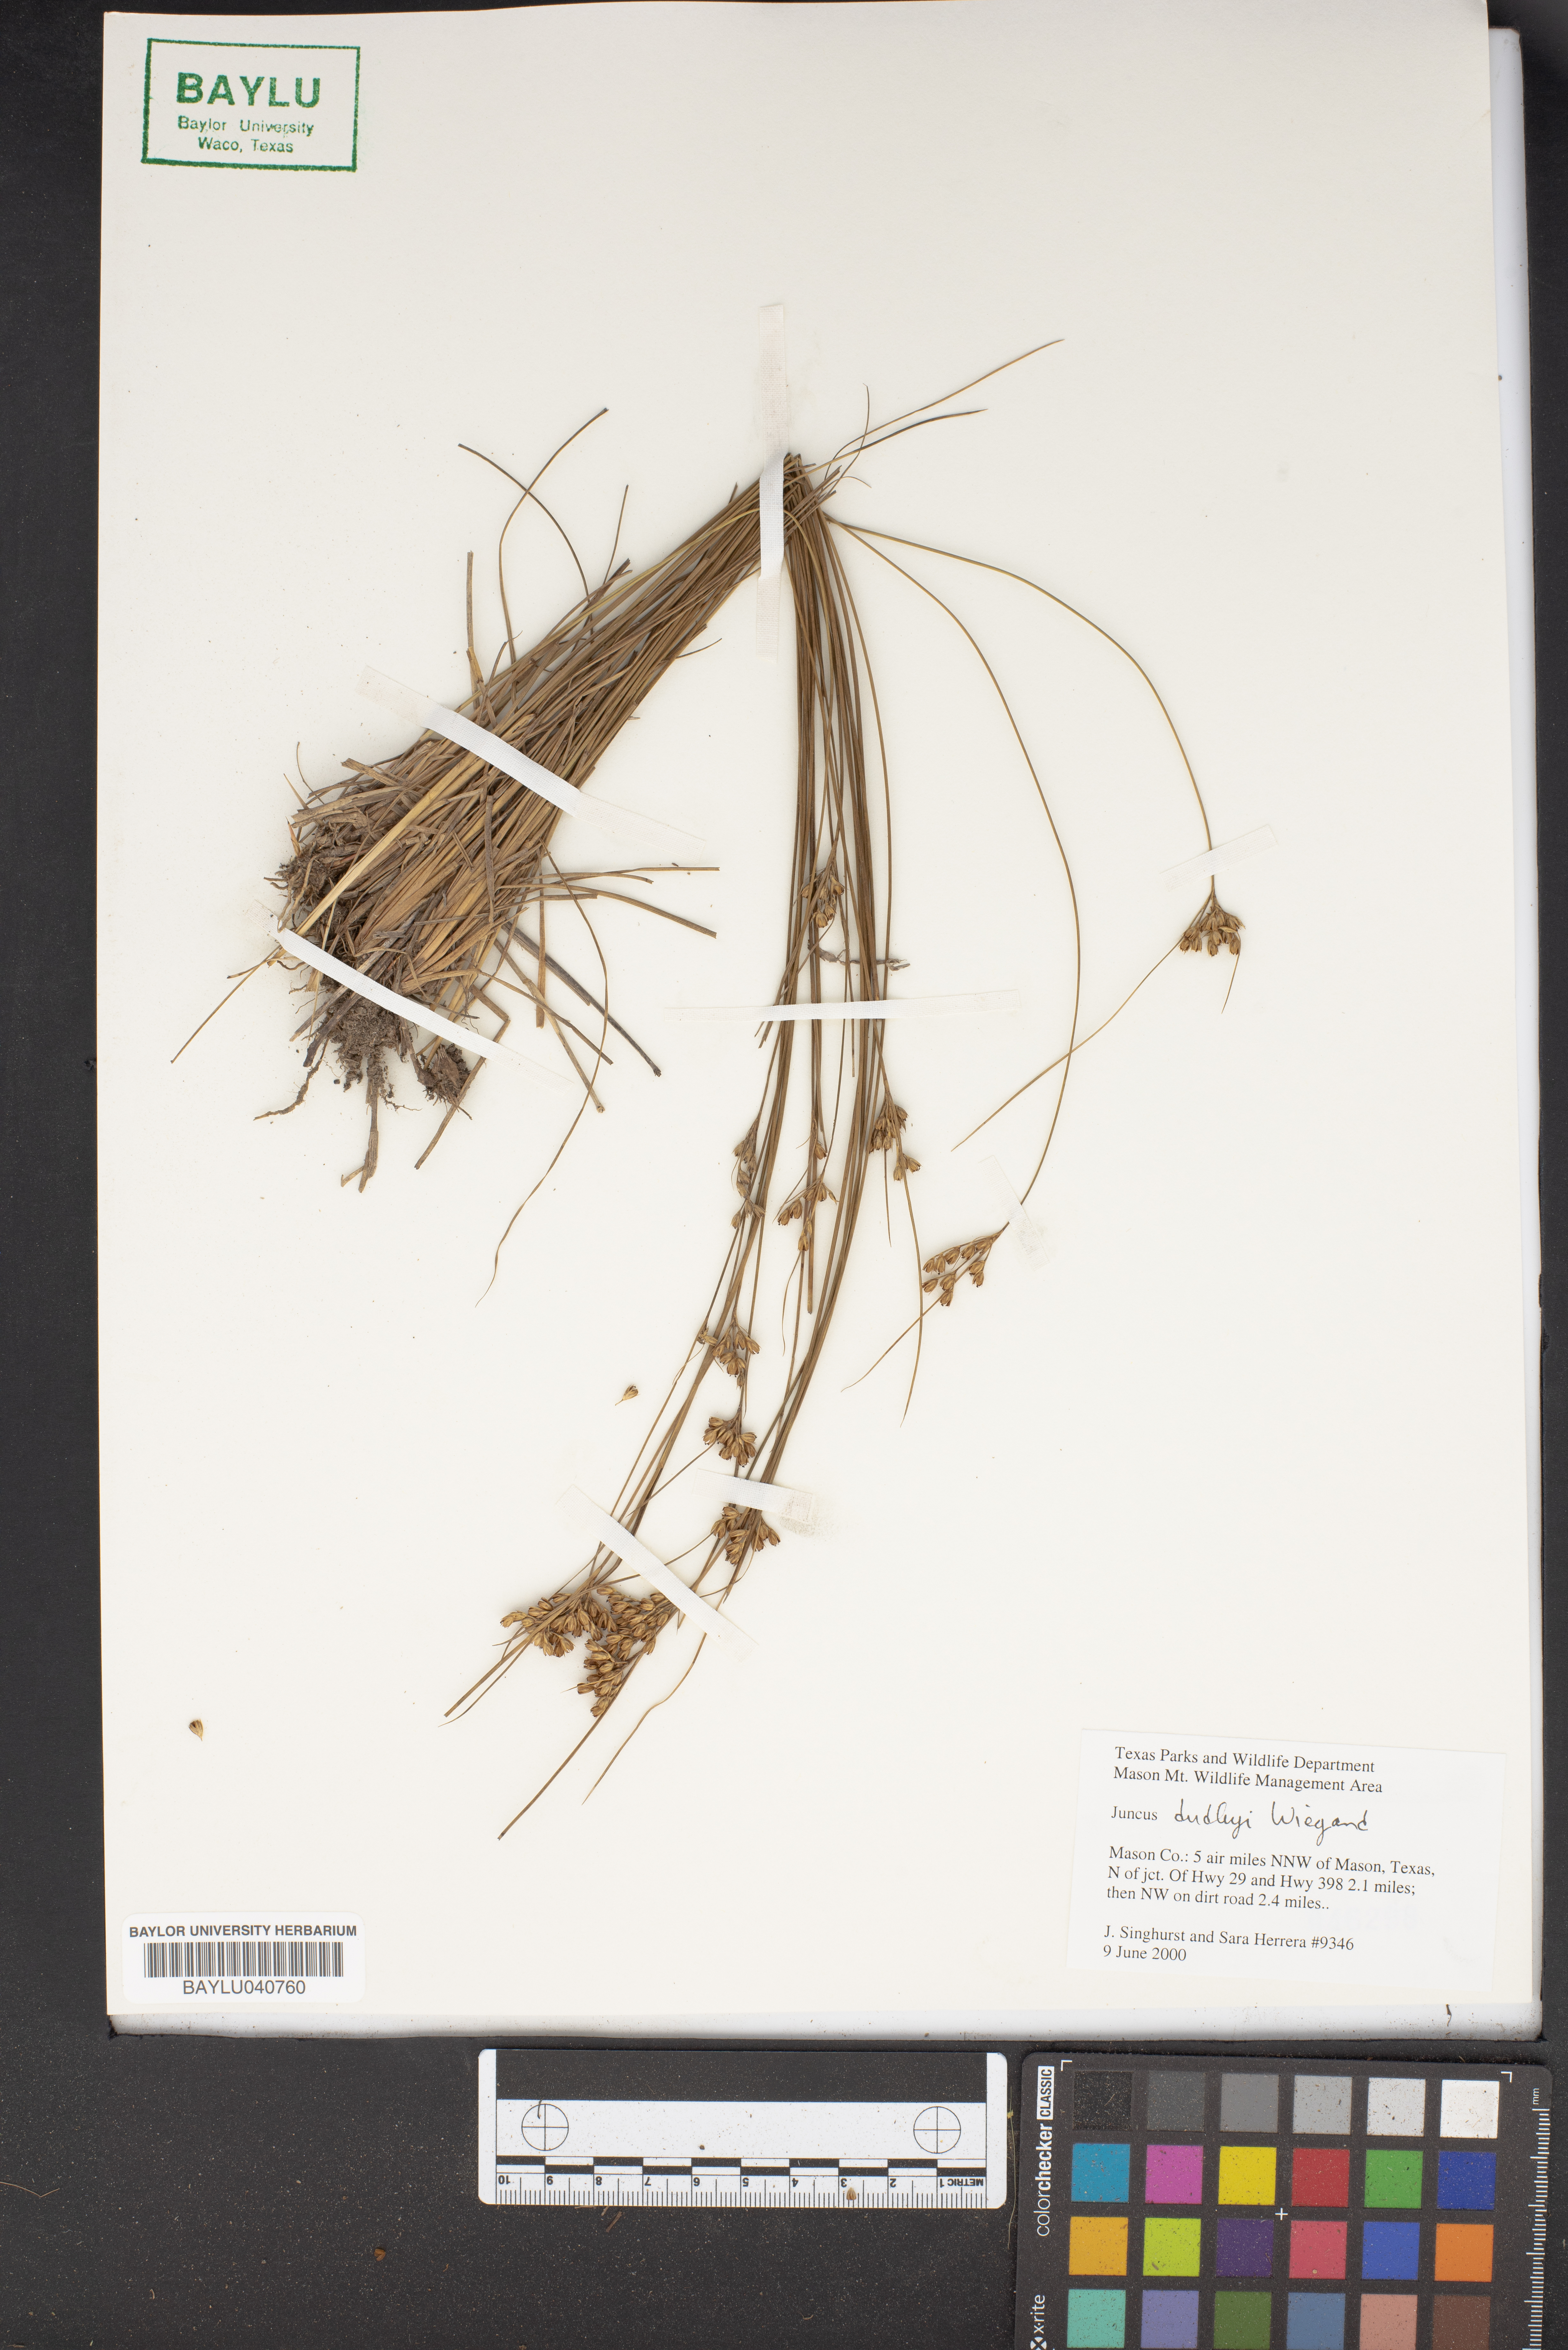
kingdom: Plantae
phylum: Tracheophyta
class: Liliopsida
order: Poales
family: Juncaceae
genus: Juncus
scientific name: Juncus dudleyi
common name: Dudley's rush
